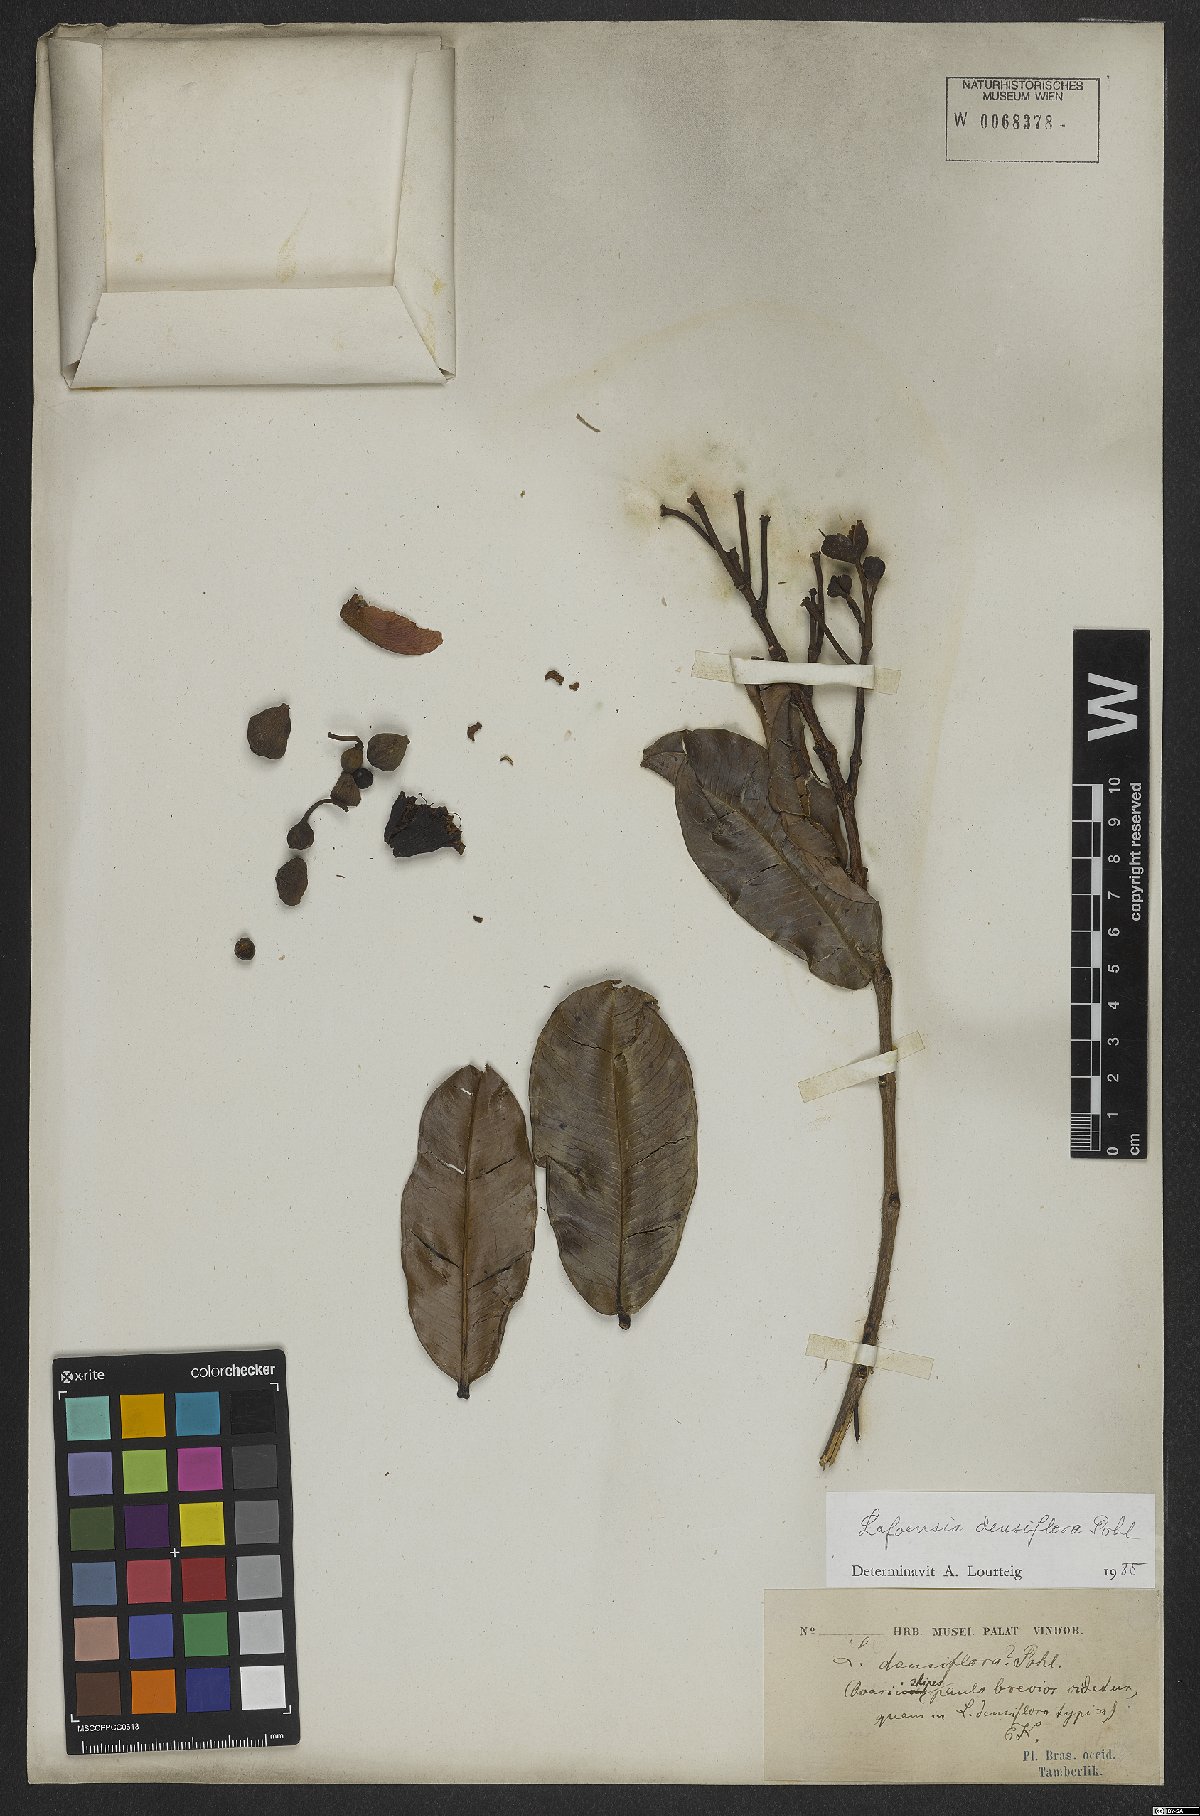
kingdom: Plantae
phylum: Tracheophyta
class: Magnoliopsida
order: Myrtales
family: Lythraceae
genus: Lafoensia
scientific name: Lafoensia vandelliana
